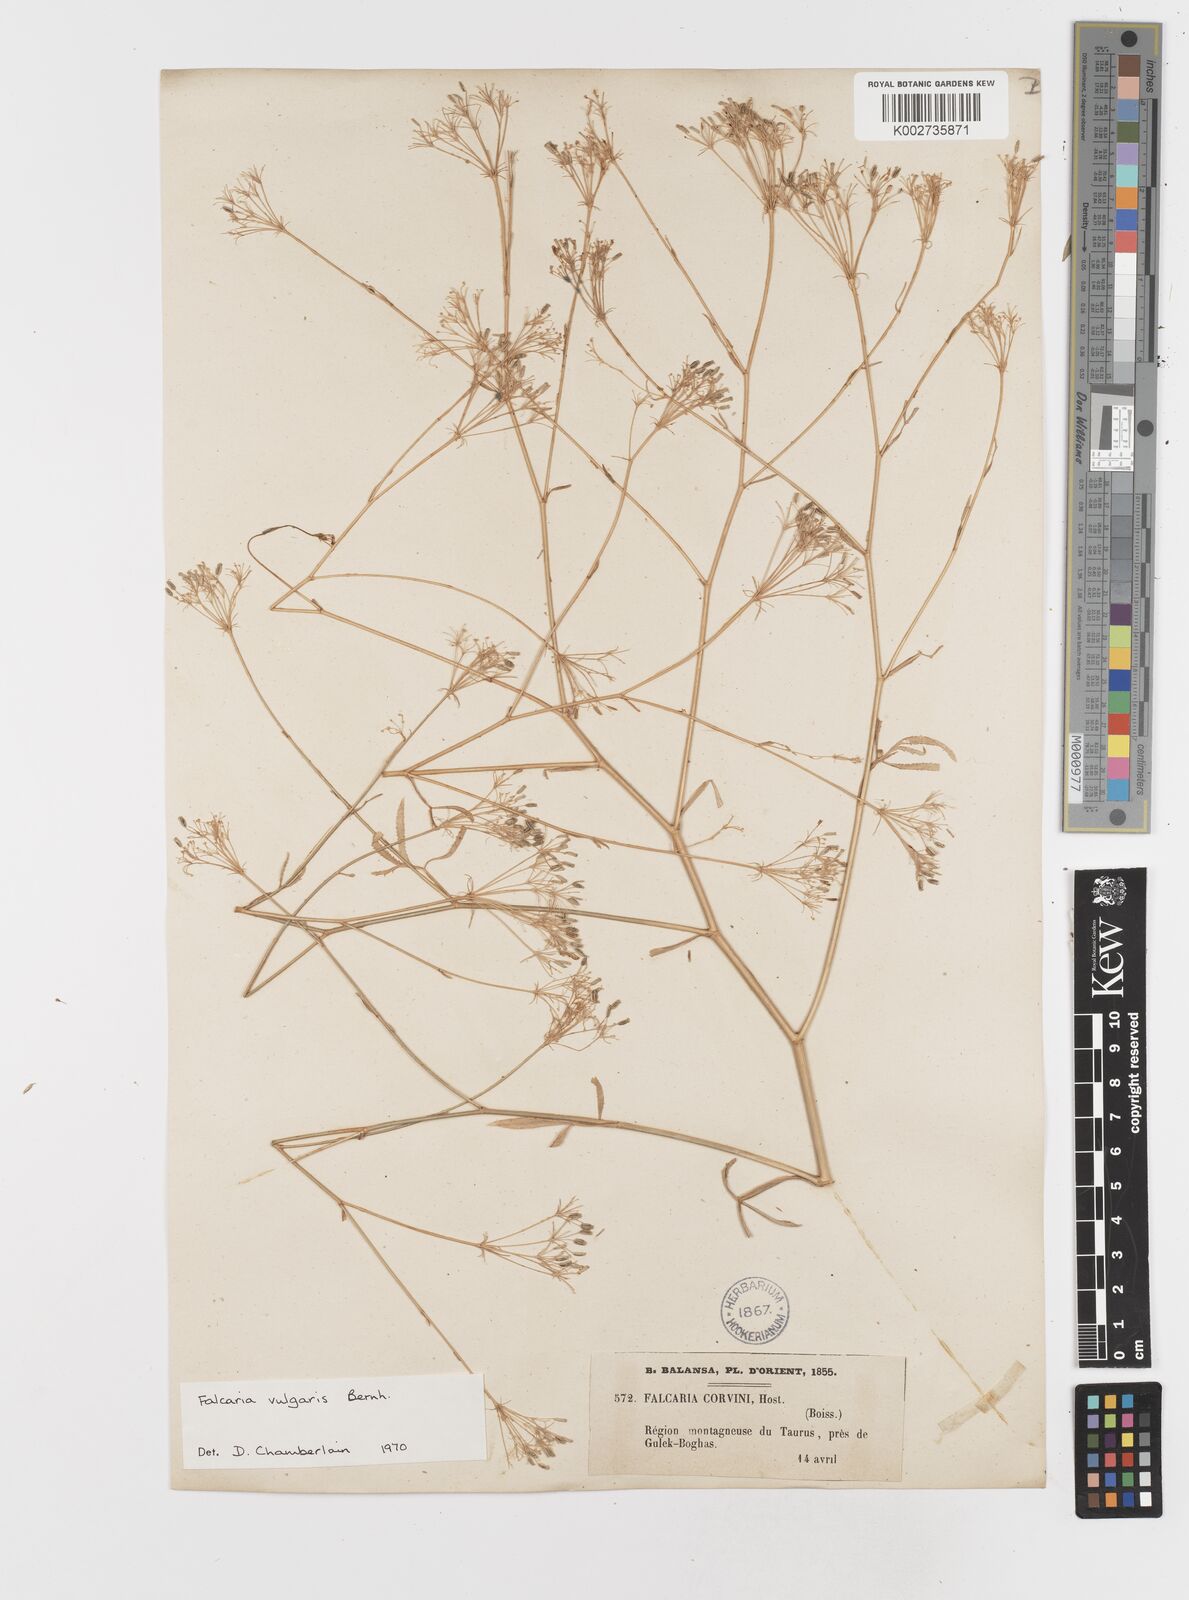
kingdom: Plantae
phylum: Tracheophyta
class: Magnoliopsida
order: Apiales
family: Apiaceae
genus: Falcaria
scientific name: Falcaria vulgaris
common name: Longleaf
